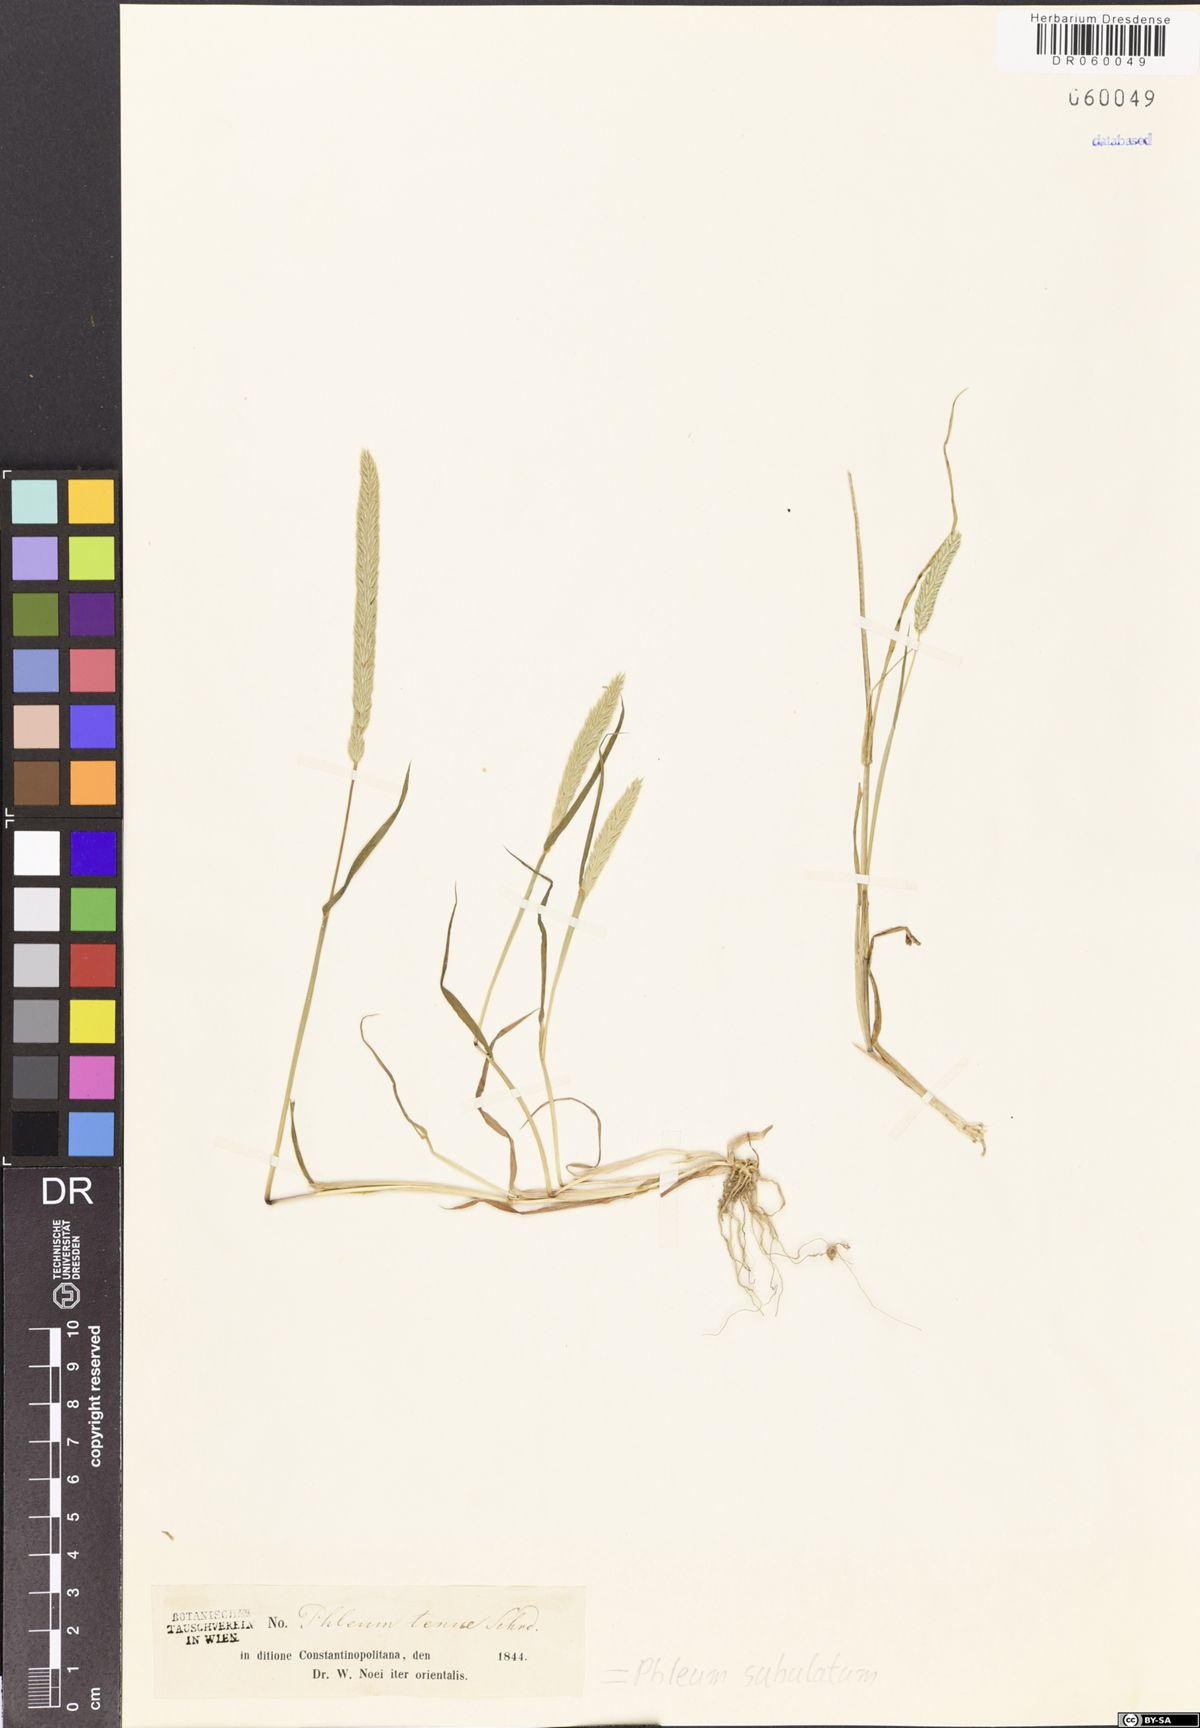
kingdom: Plantae
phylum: Tracheophyta
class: Liliopsida
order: Poales
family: Poaceae
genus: Phleum
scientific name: Phleum subulatum
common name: Italian timothy
